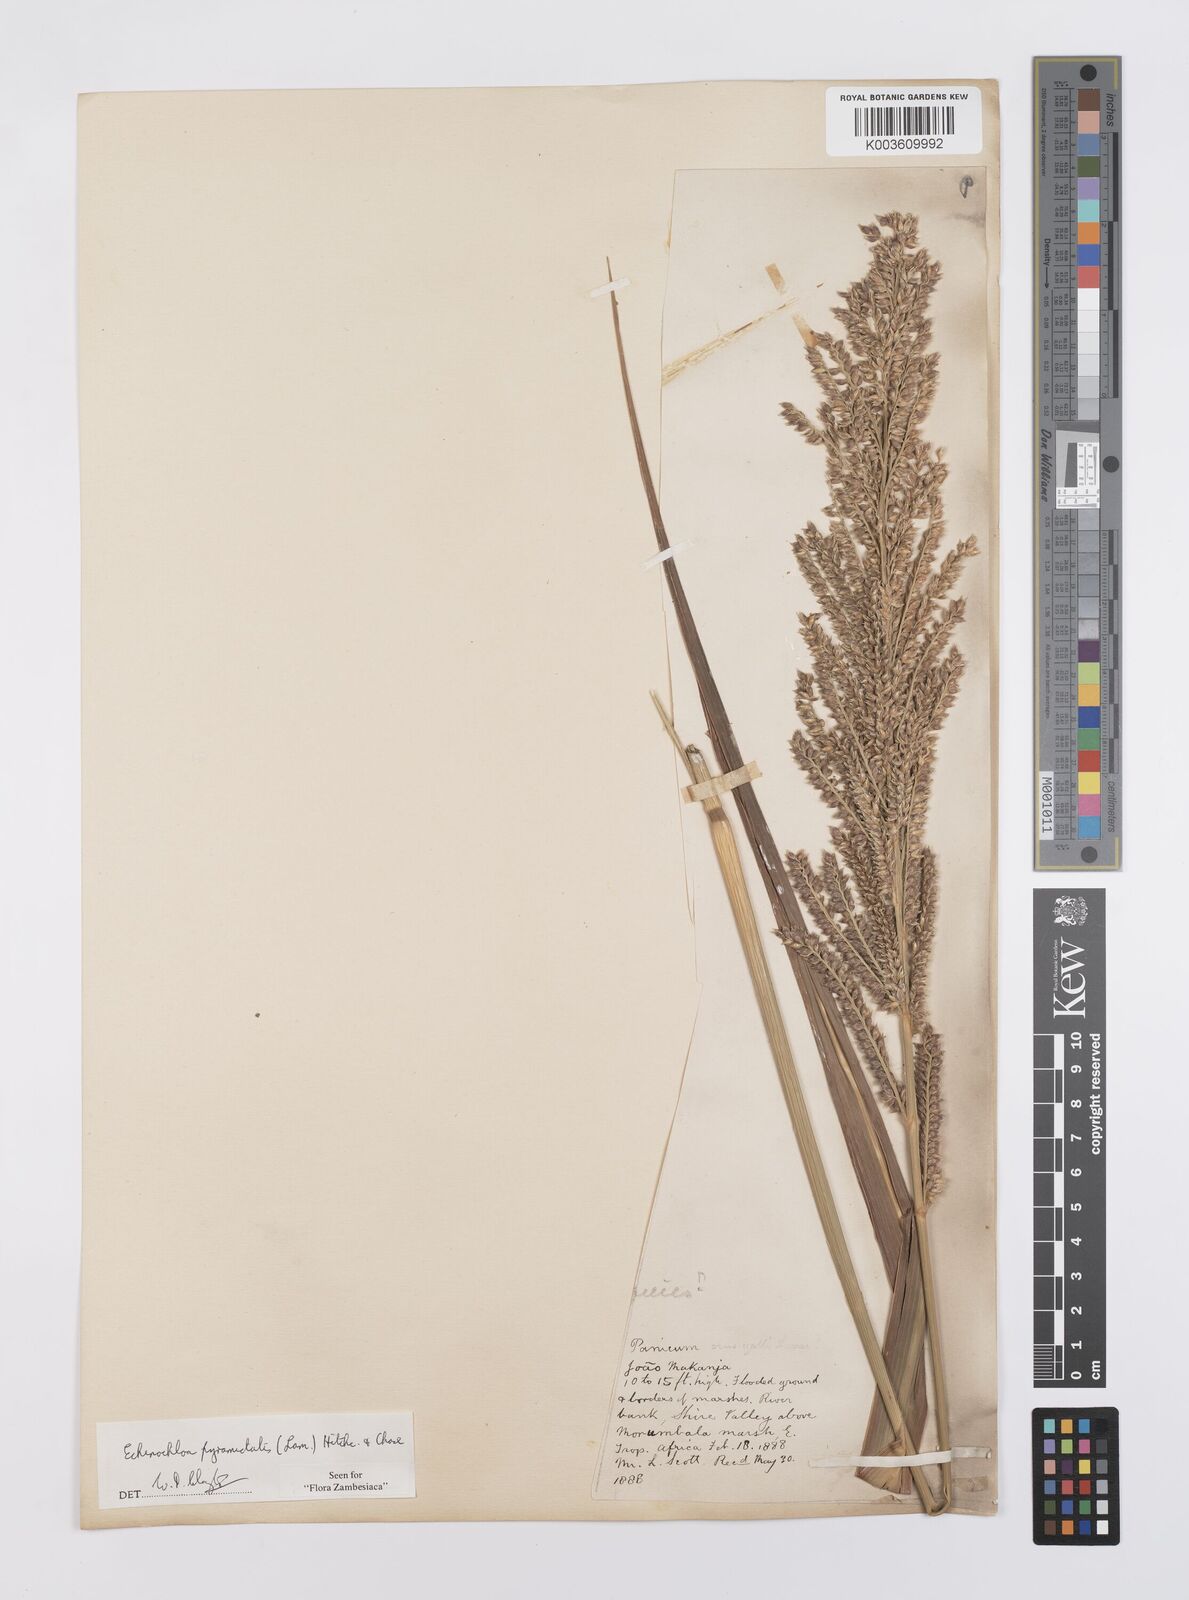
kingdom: Plantae
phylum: Tracheophyta
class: Liliopsida
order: Poales
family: Poaceae
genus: Echinochloa
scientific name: Echinochloa pyramidalis
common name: Antelope grass
